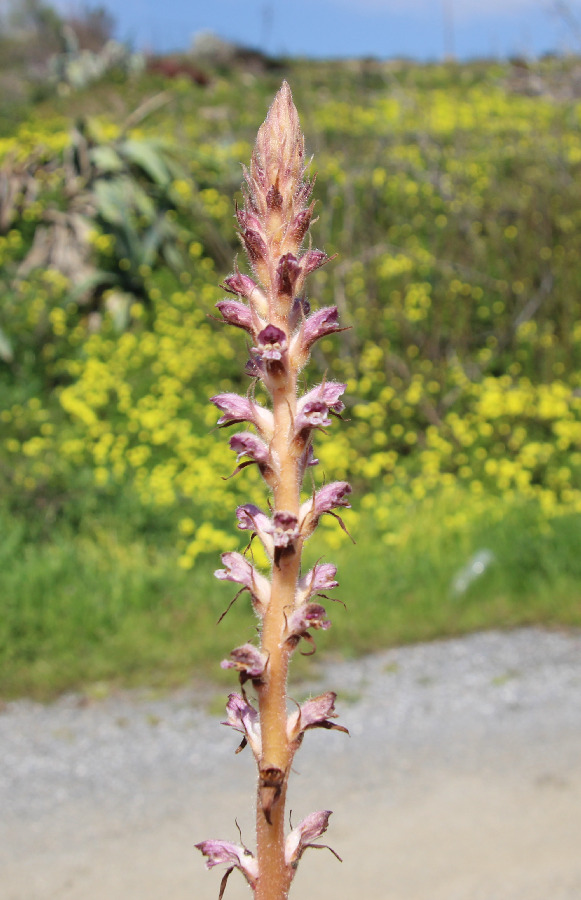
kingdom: Plantae
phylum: Tracheophyta
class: Magnoliopsida
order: Lamiales
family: Orobanchaceae
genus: Orobanche
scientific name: Orobanche pubescens
